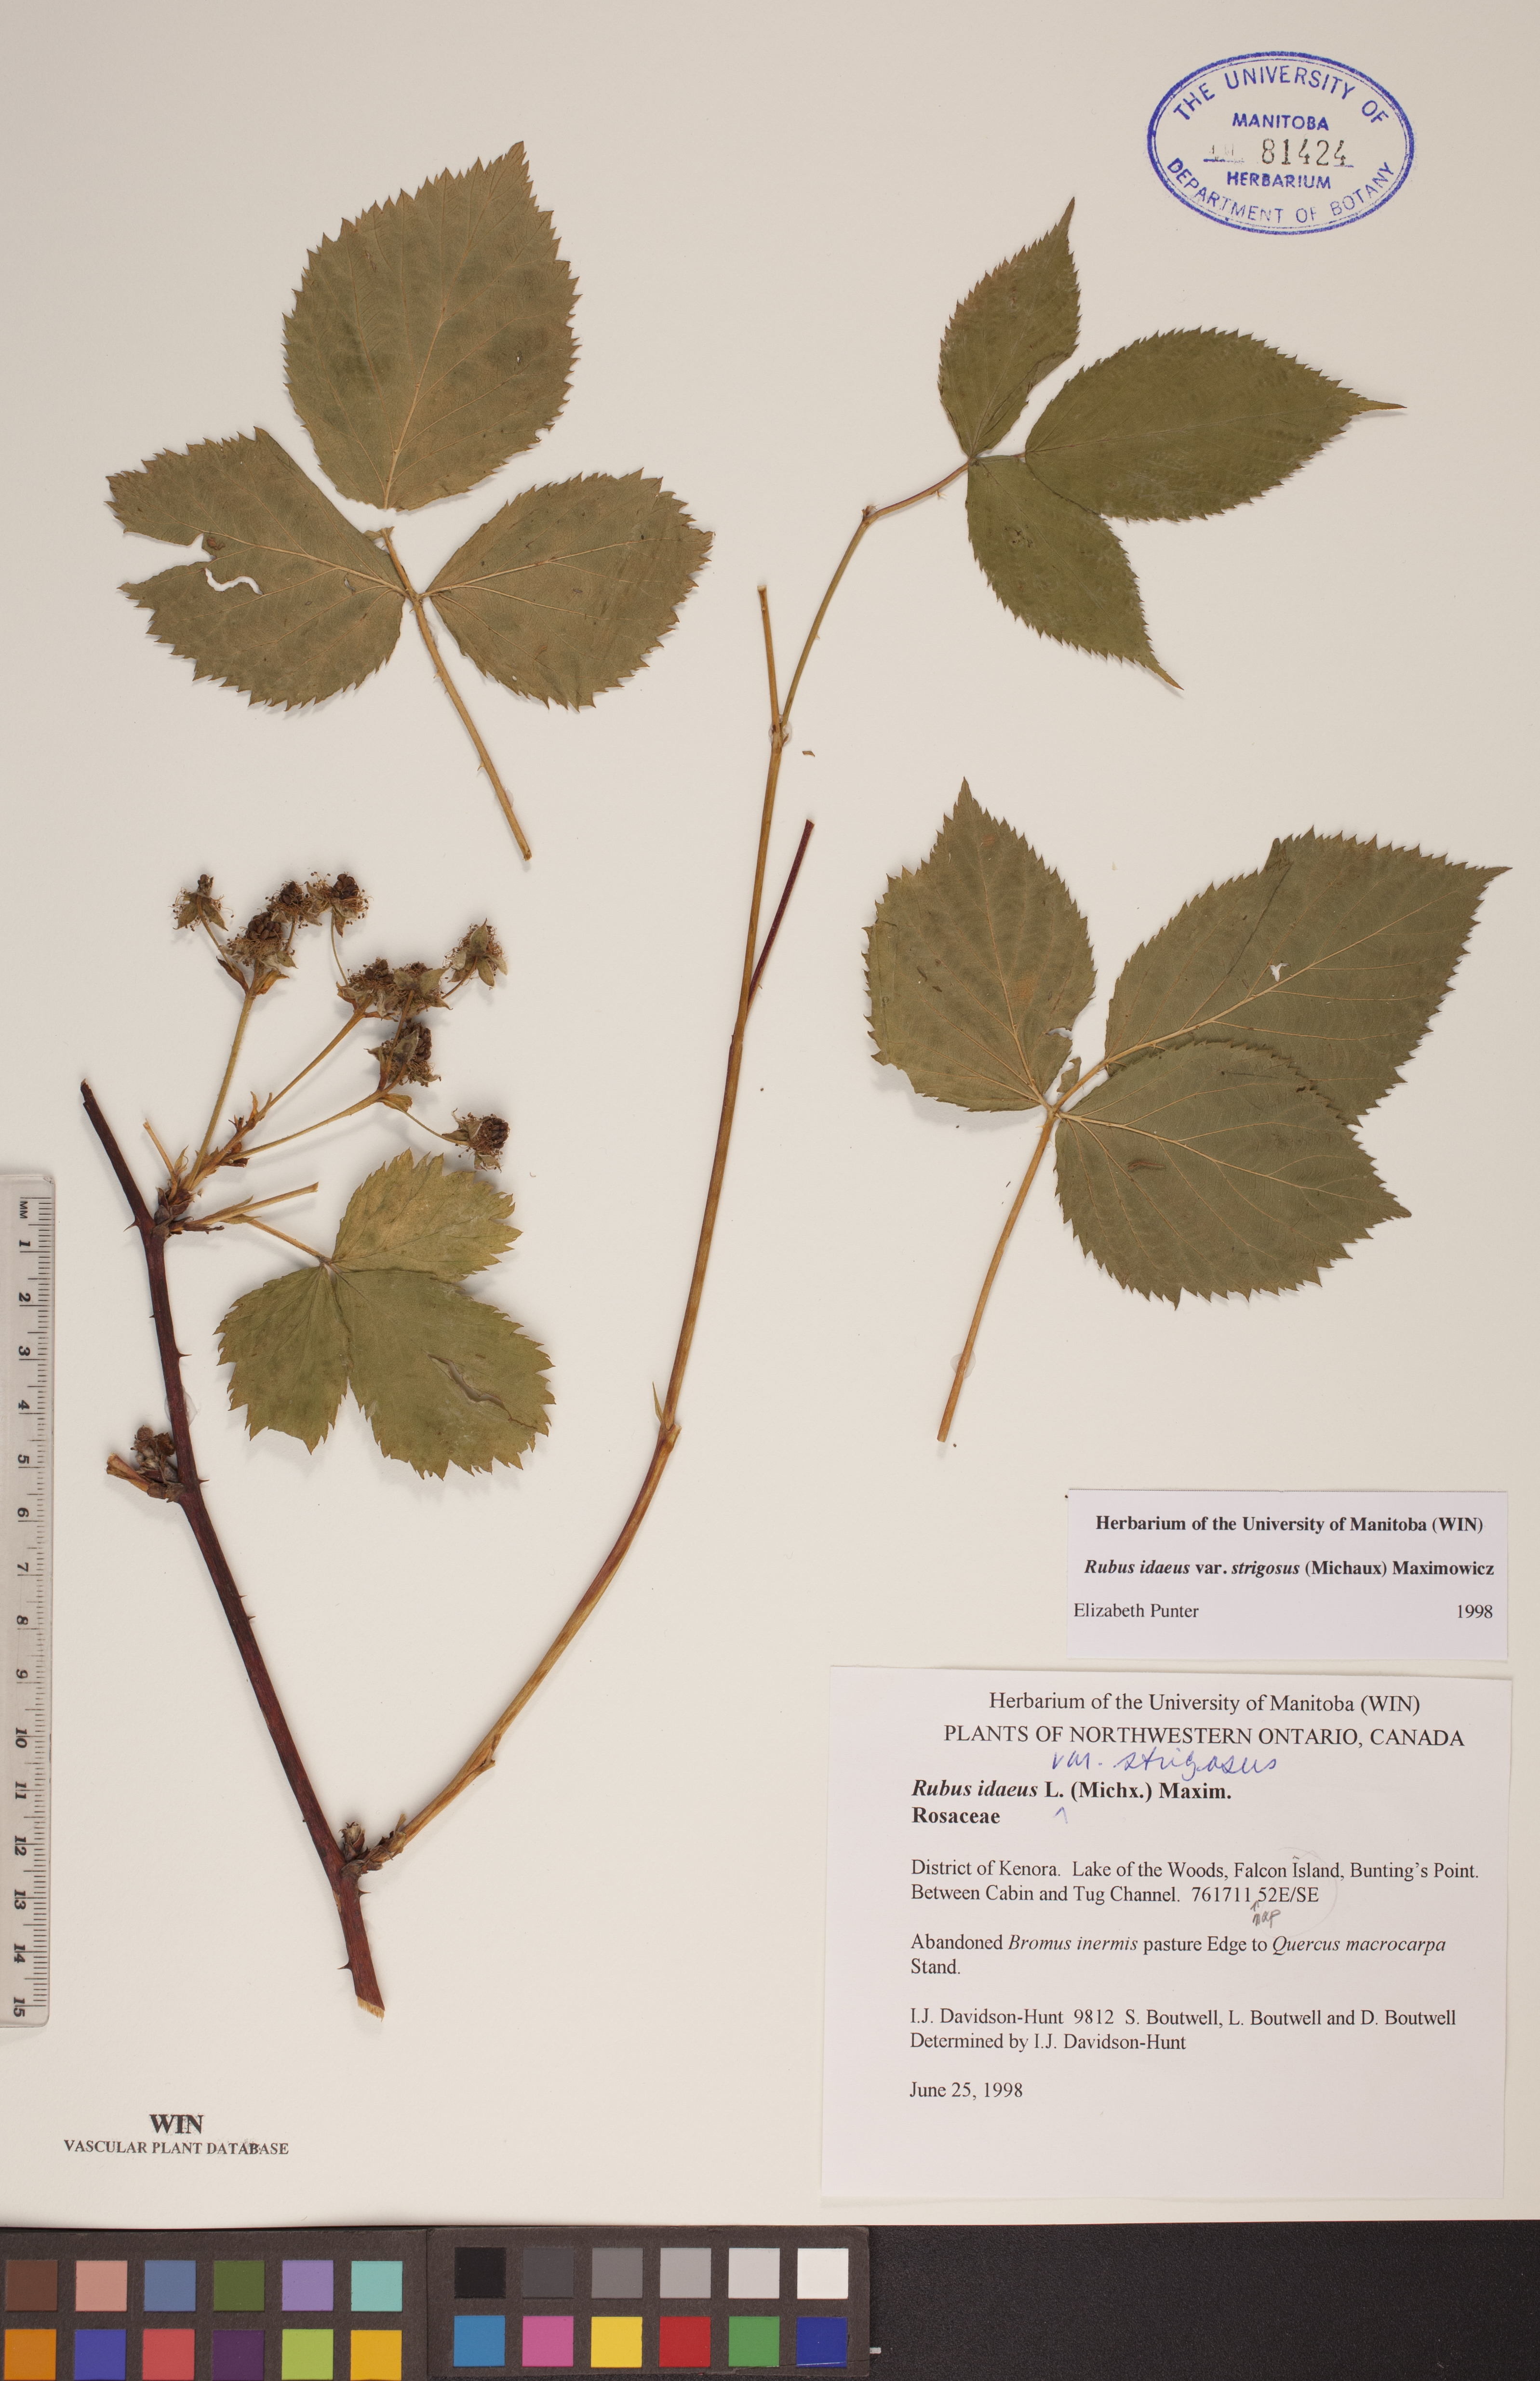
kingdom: Plantae
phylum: Tracheophyta
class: Magnoliopsida
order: Rosales
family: Rosaceae
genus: Rubus
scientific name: Rubus idaeus
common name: Raspberry
